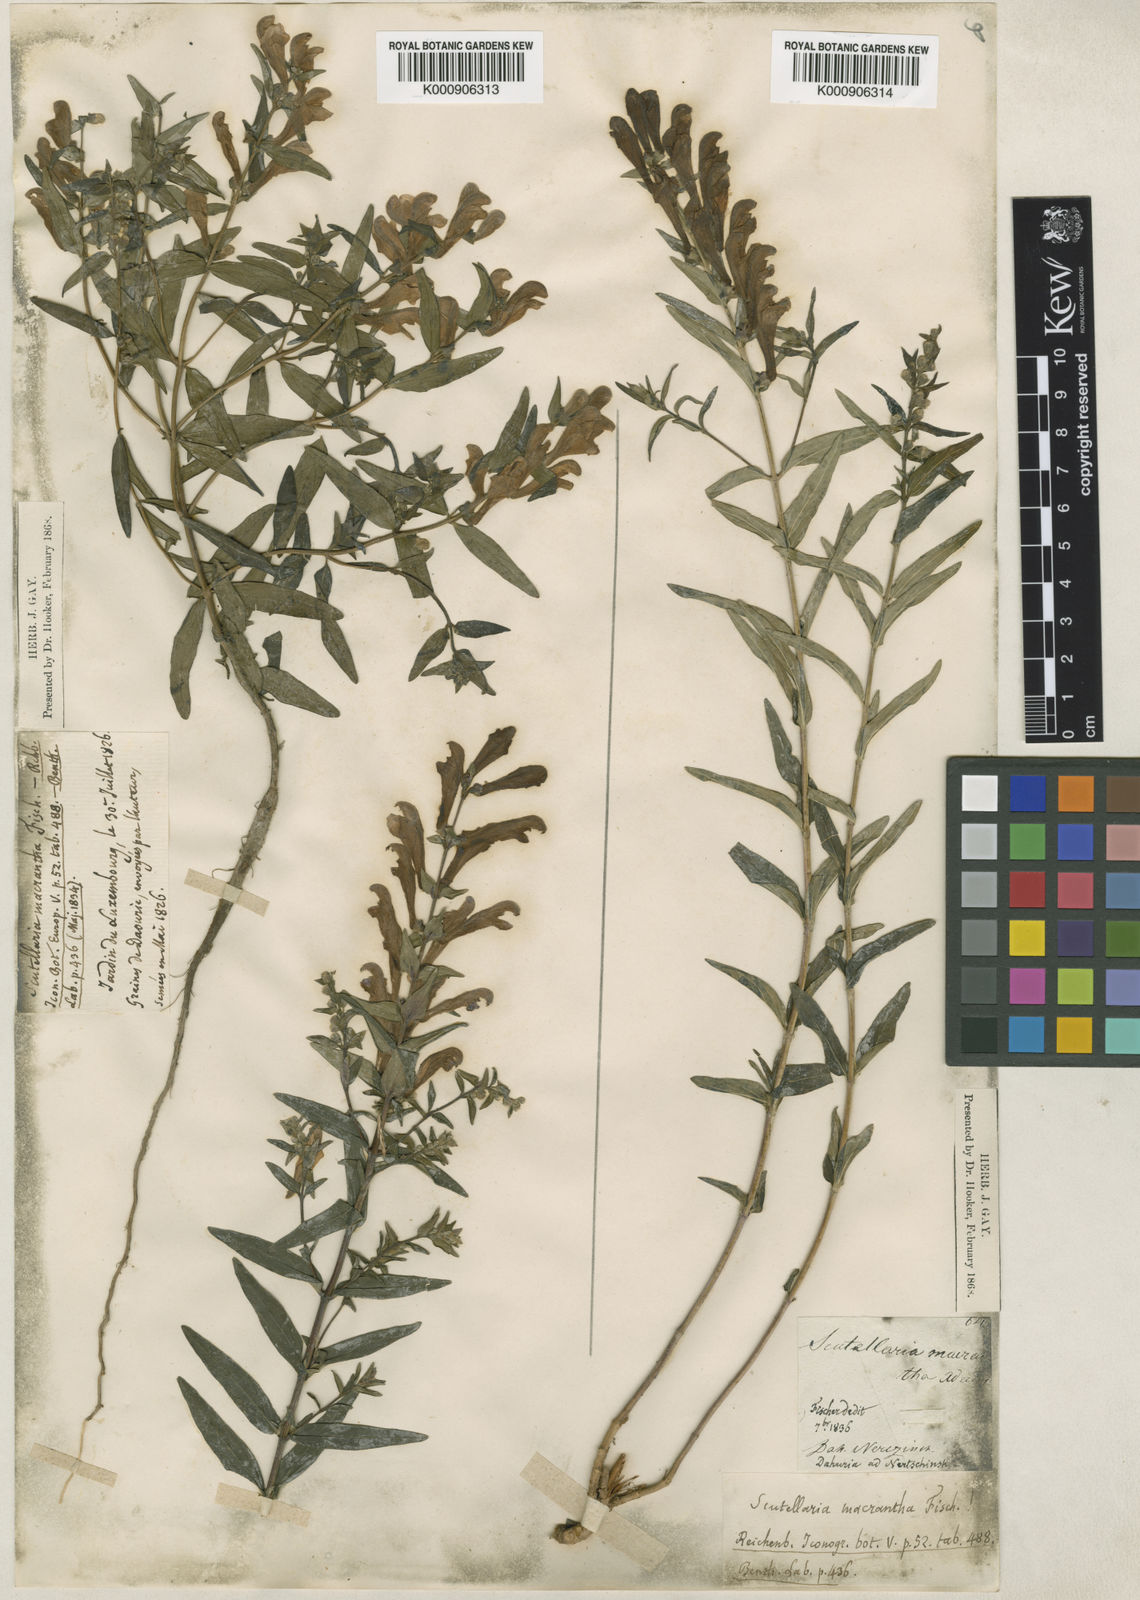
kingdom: Plantae
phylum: Tracheophyta
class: Magnoliopsida
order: Lamiales
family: Lamiaceae
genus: Scutellaria
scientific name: Scutellaria baicalensis
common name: Baikal skullcap
